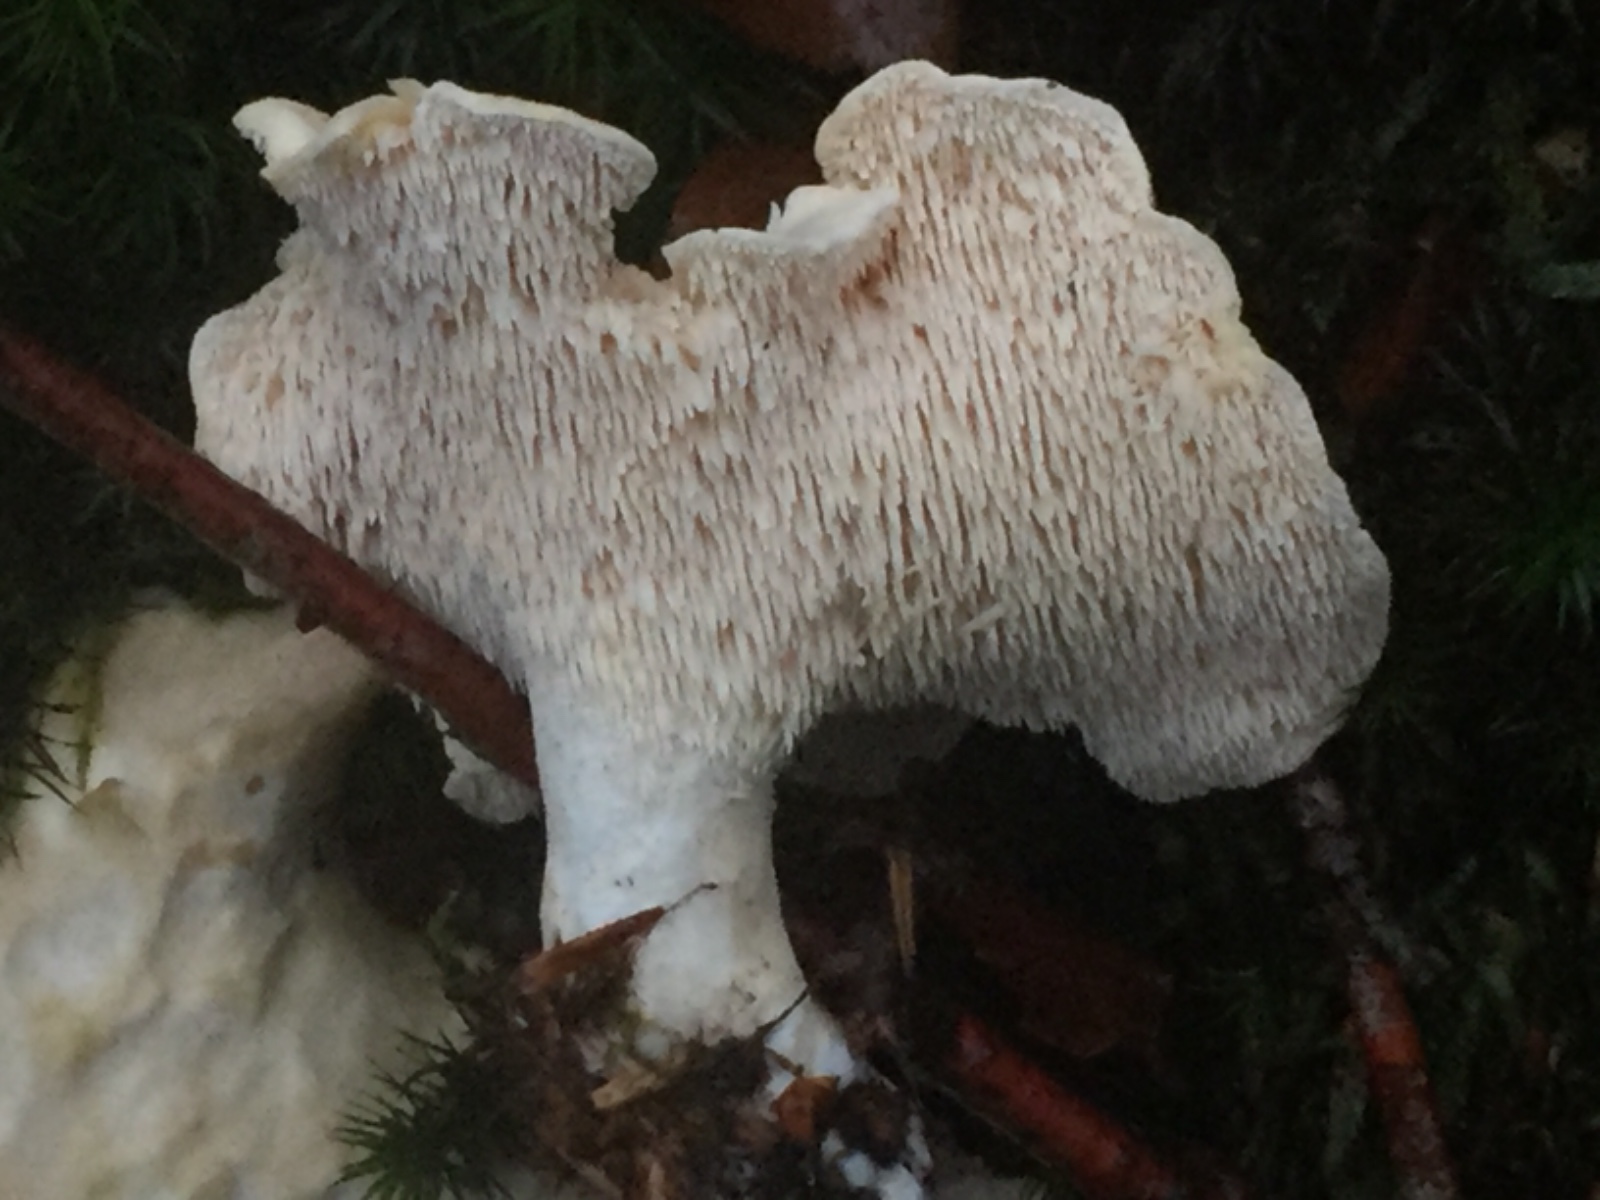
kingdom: Fungi
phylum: Basidiomycota
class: Agaricomycetes
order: Cantharellales
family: Hydnaceae
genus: Hydnum
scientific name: Hydnum repandum
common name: almindelig pigsvamp
